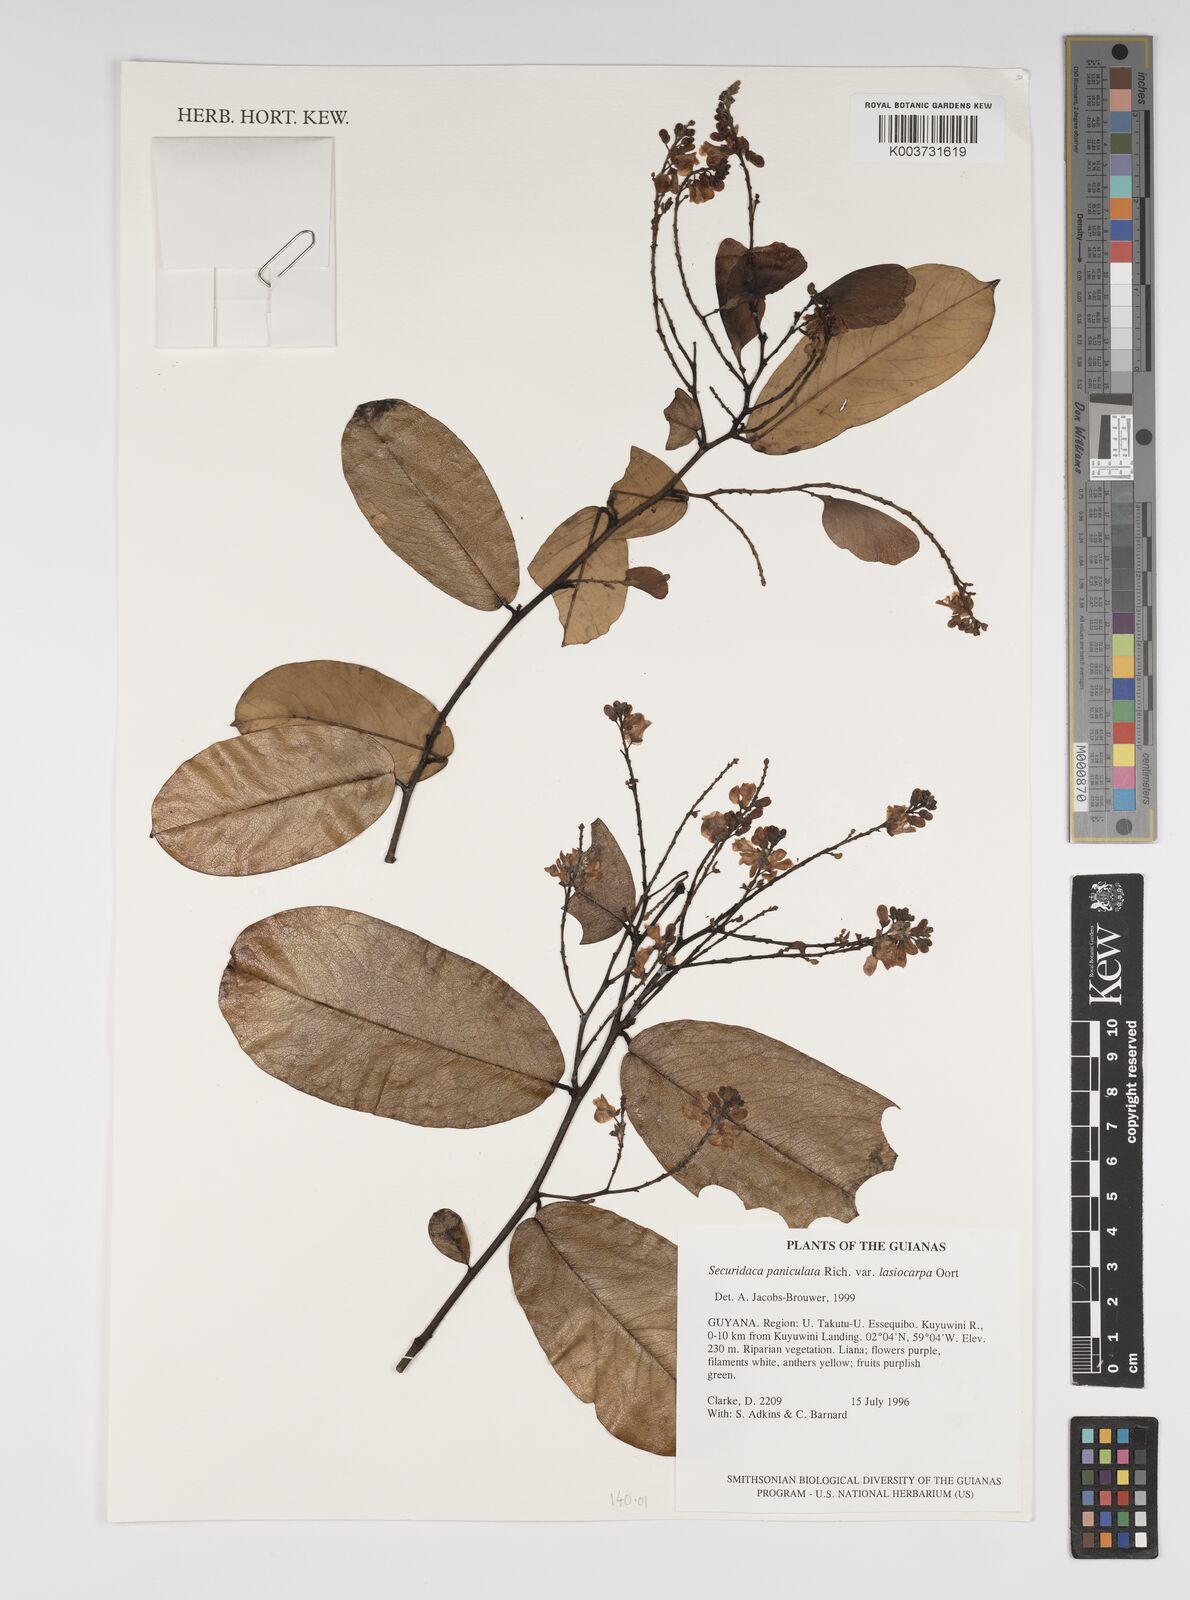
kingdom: Plantae
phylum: Tracheophyta
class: Magnoliopsida
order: Fabales
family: Polygalaceae
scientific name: Polygalaceae
